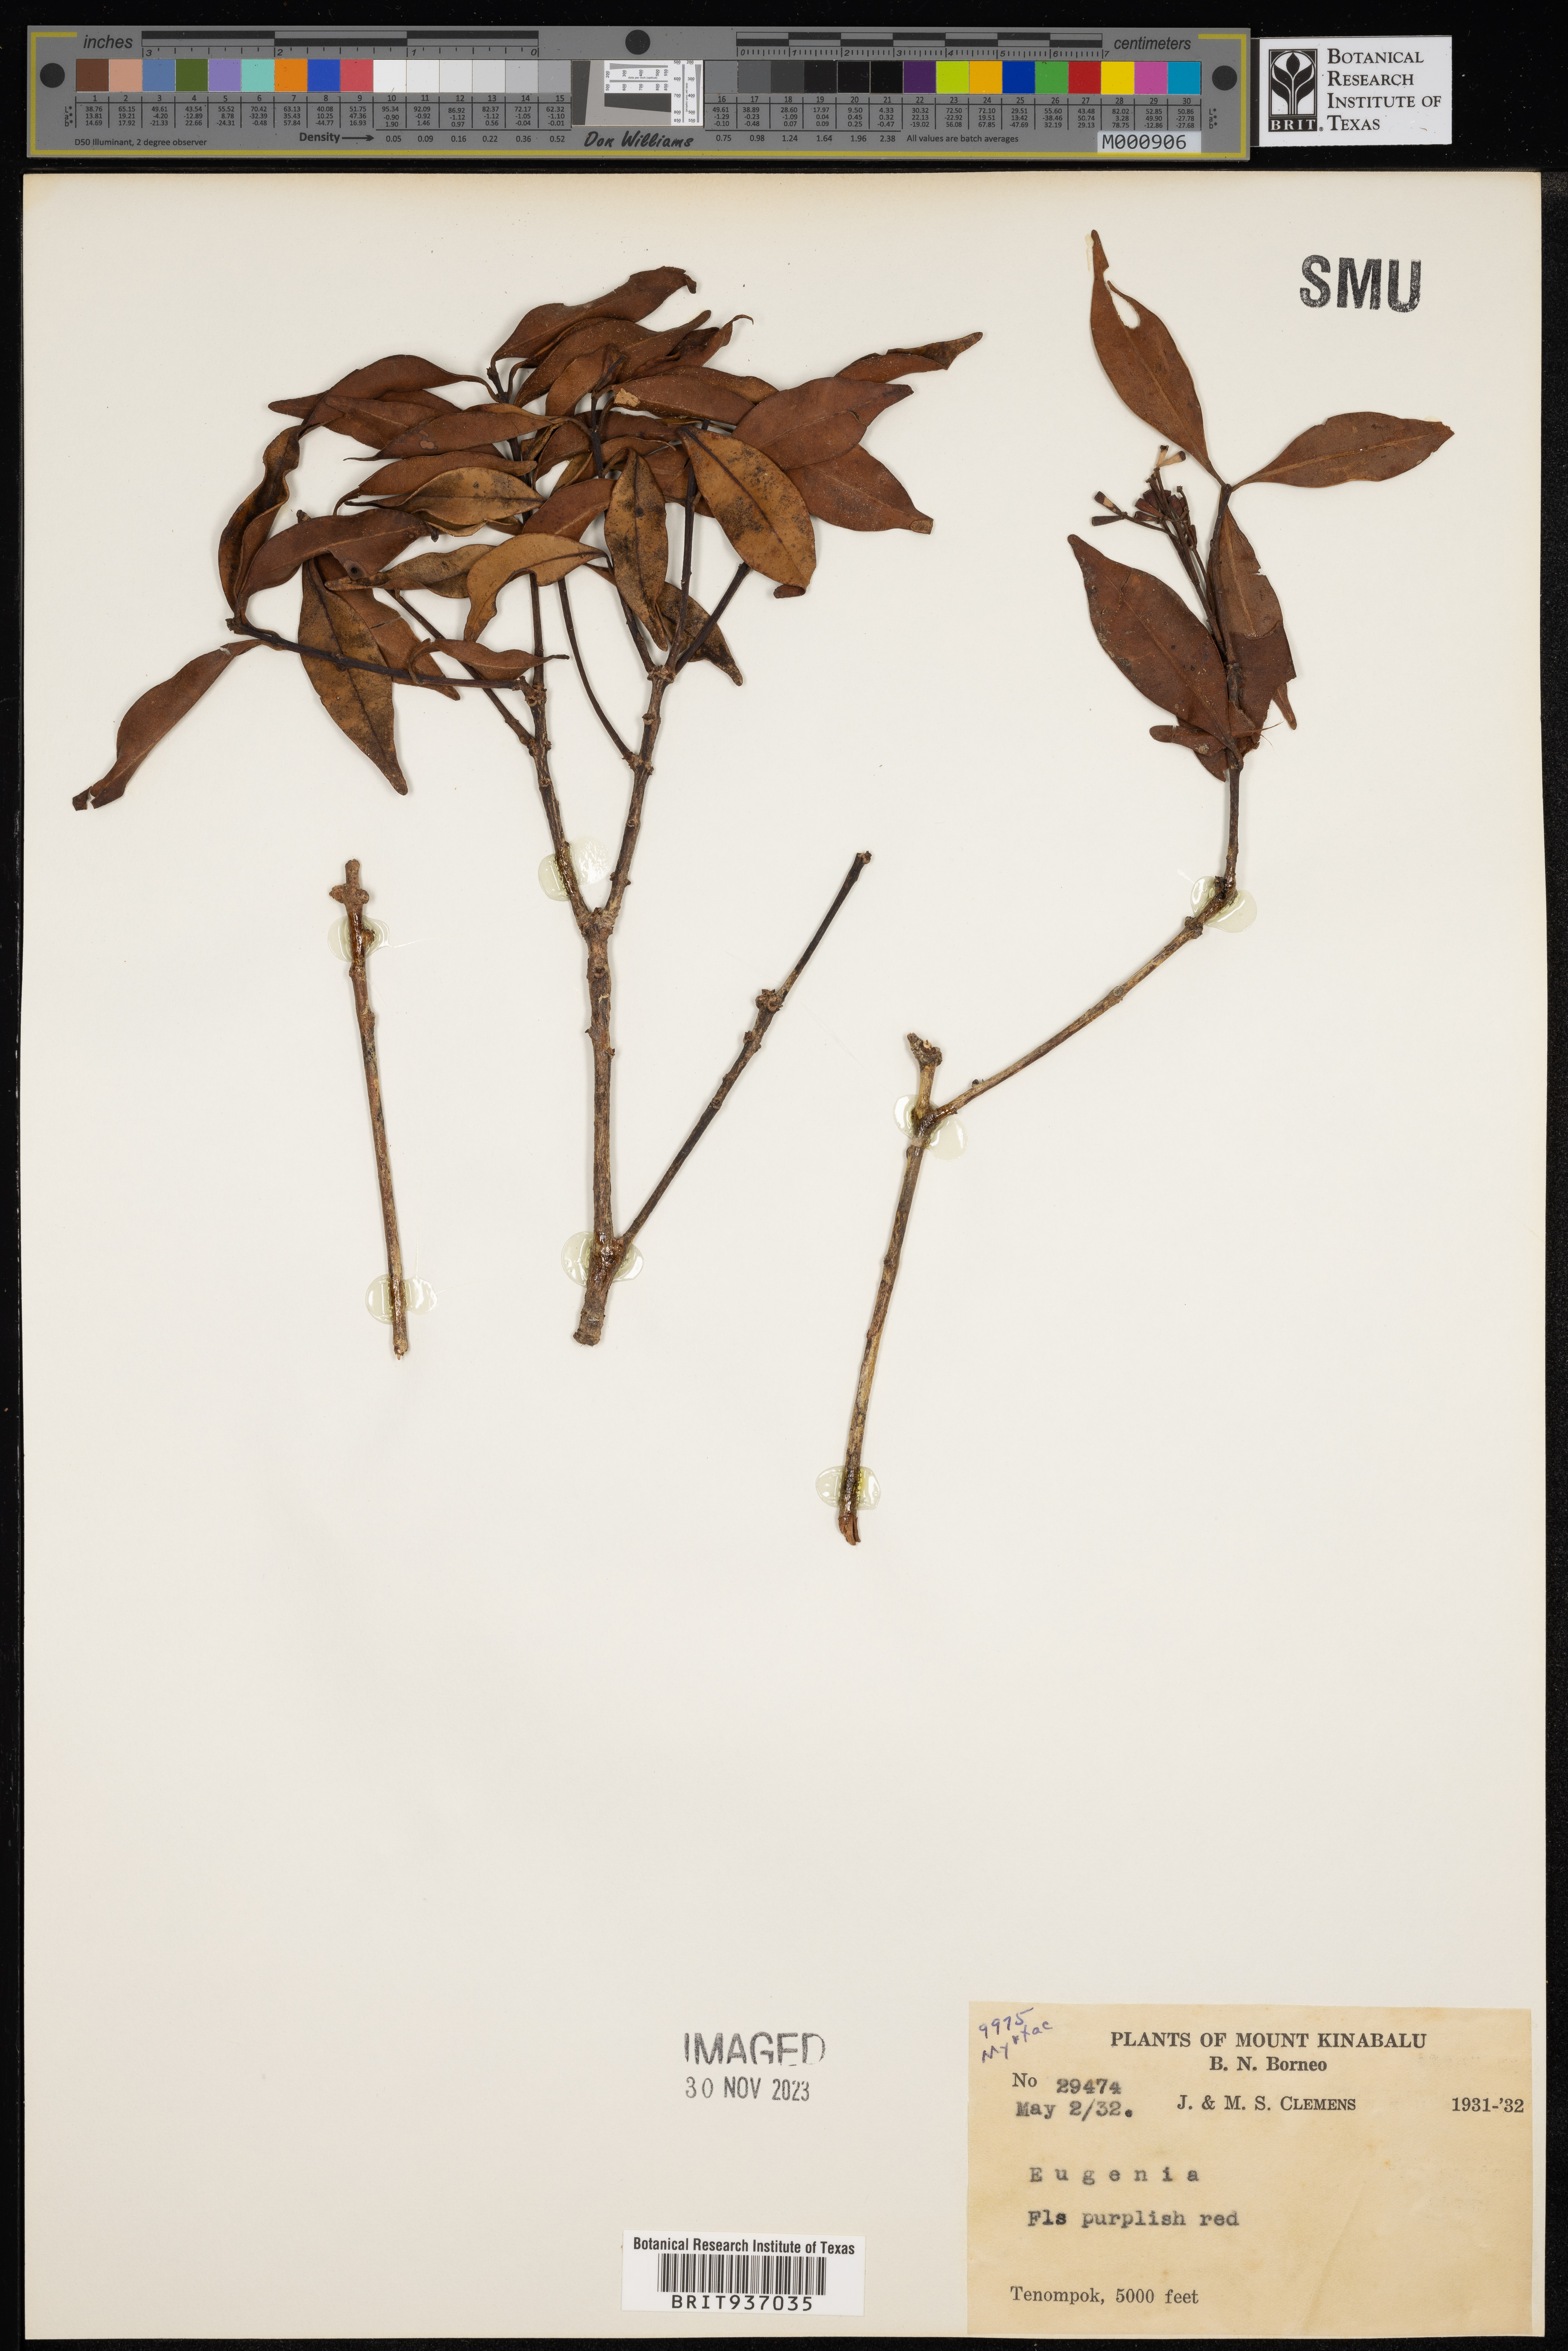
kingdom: Plantae
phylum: Tracheophyta
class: Magnoliopsida
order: Myrtales
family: Myrtaceae
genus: Eugenia
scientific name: Eugenia
